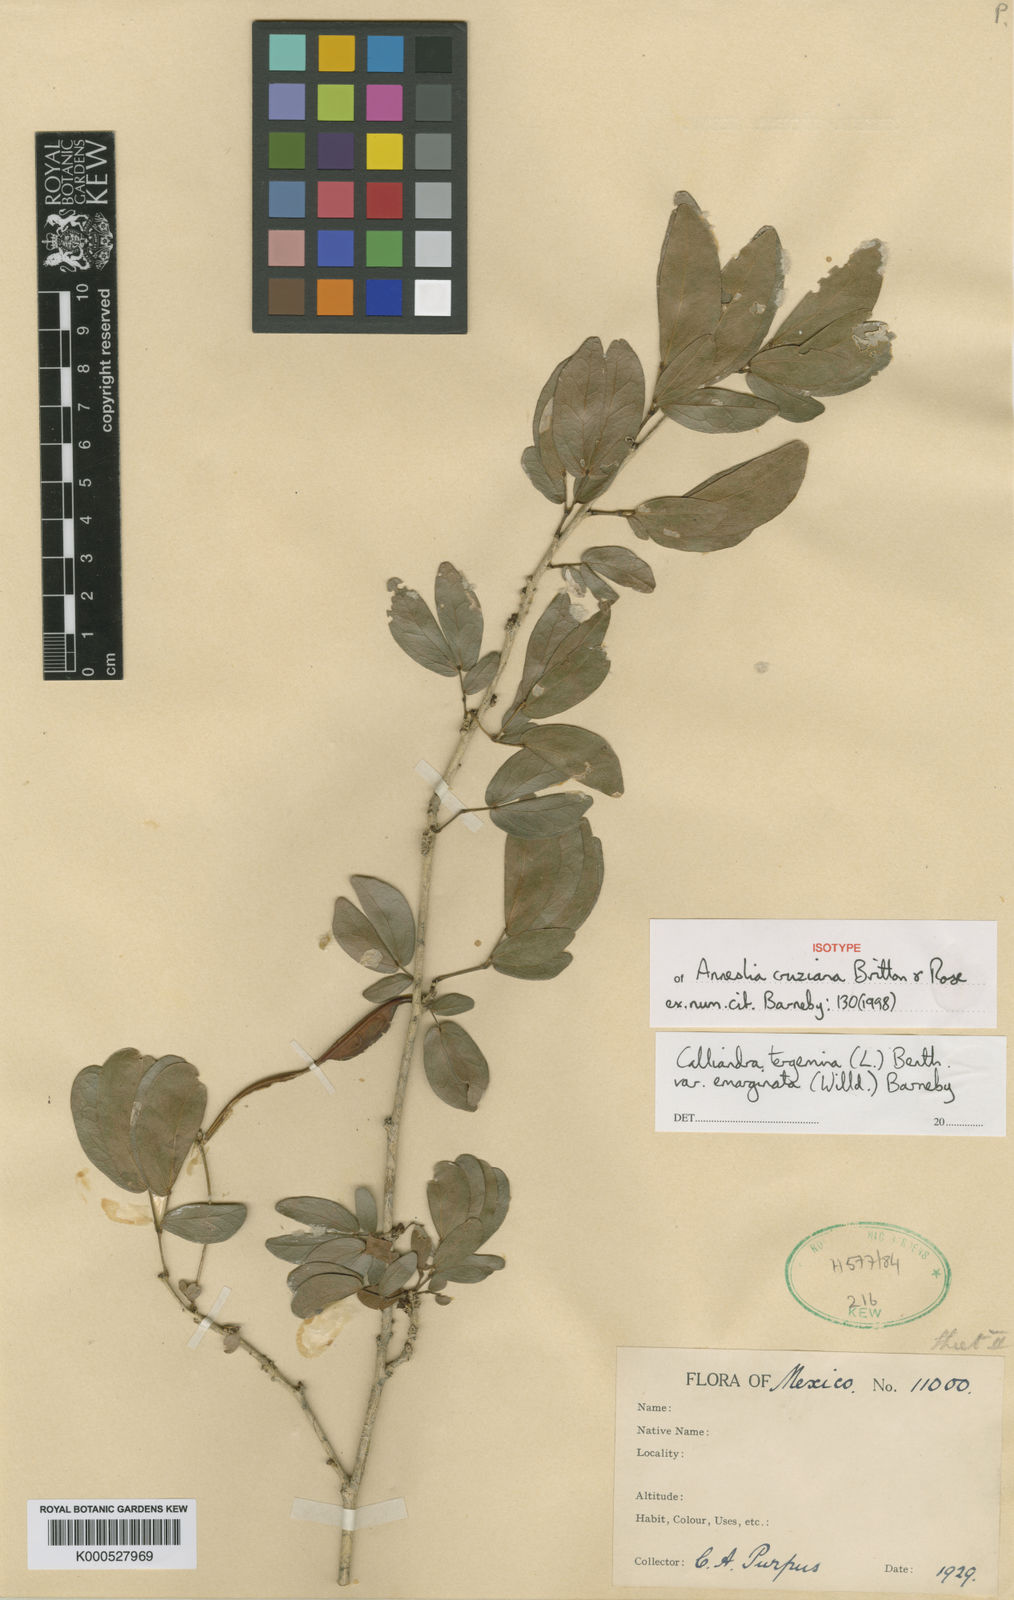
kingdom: Plantae
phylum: Tracheophyta
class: Magnoliopsida
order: Fabales
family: Fabaceae
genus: Calliandra
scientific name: Calliandra tergemina
